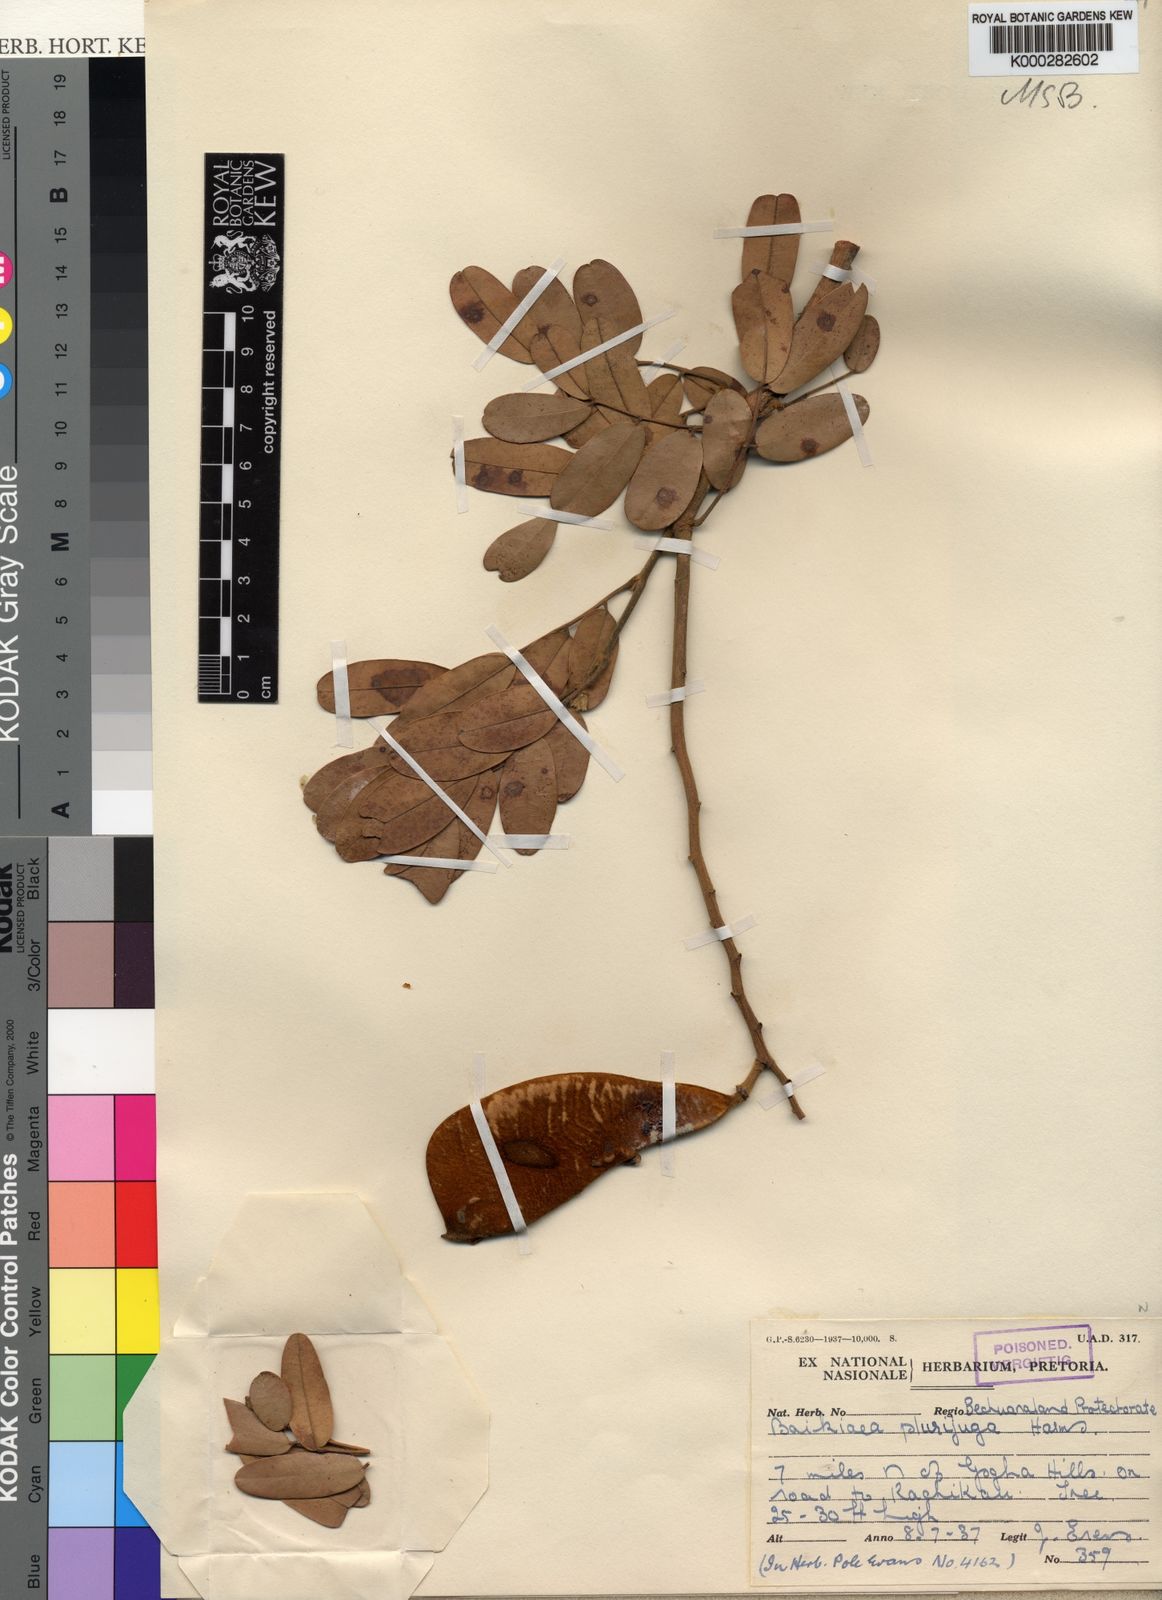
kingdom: Plantae
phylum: Tracheophyta
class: Magnoliopsida
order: Fabales
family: Fabaceae
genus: Baikiaea
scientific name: Baikiaea plurijuga
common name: Rhodesian-teak
